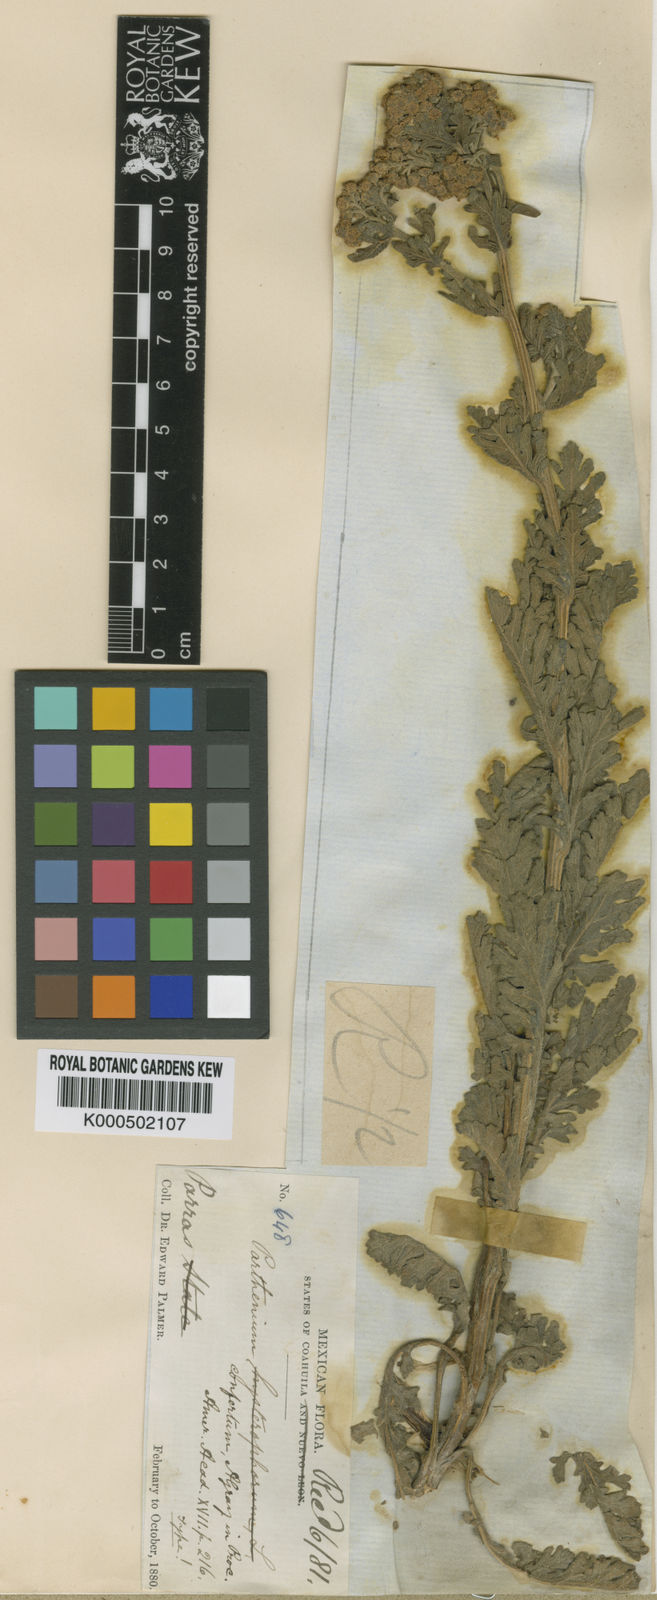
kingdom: Plantae
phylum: Tracheophyta
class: Magnoliopsida
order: Asterales
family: Asteraceae
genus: Parthenium
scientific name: Parthenium confertum
